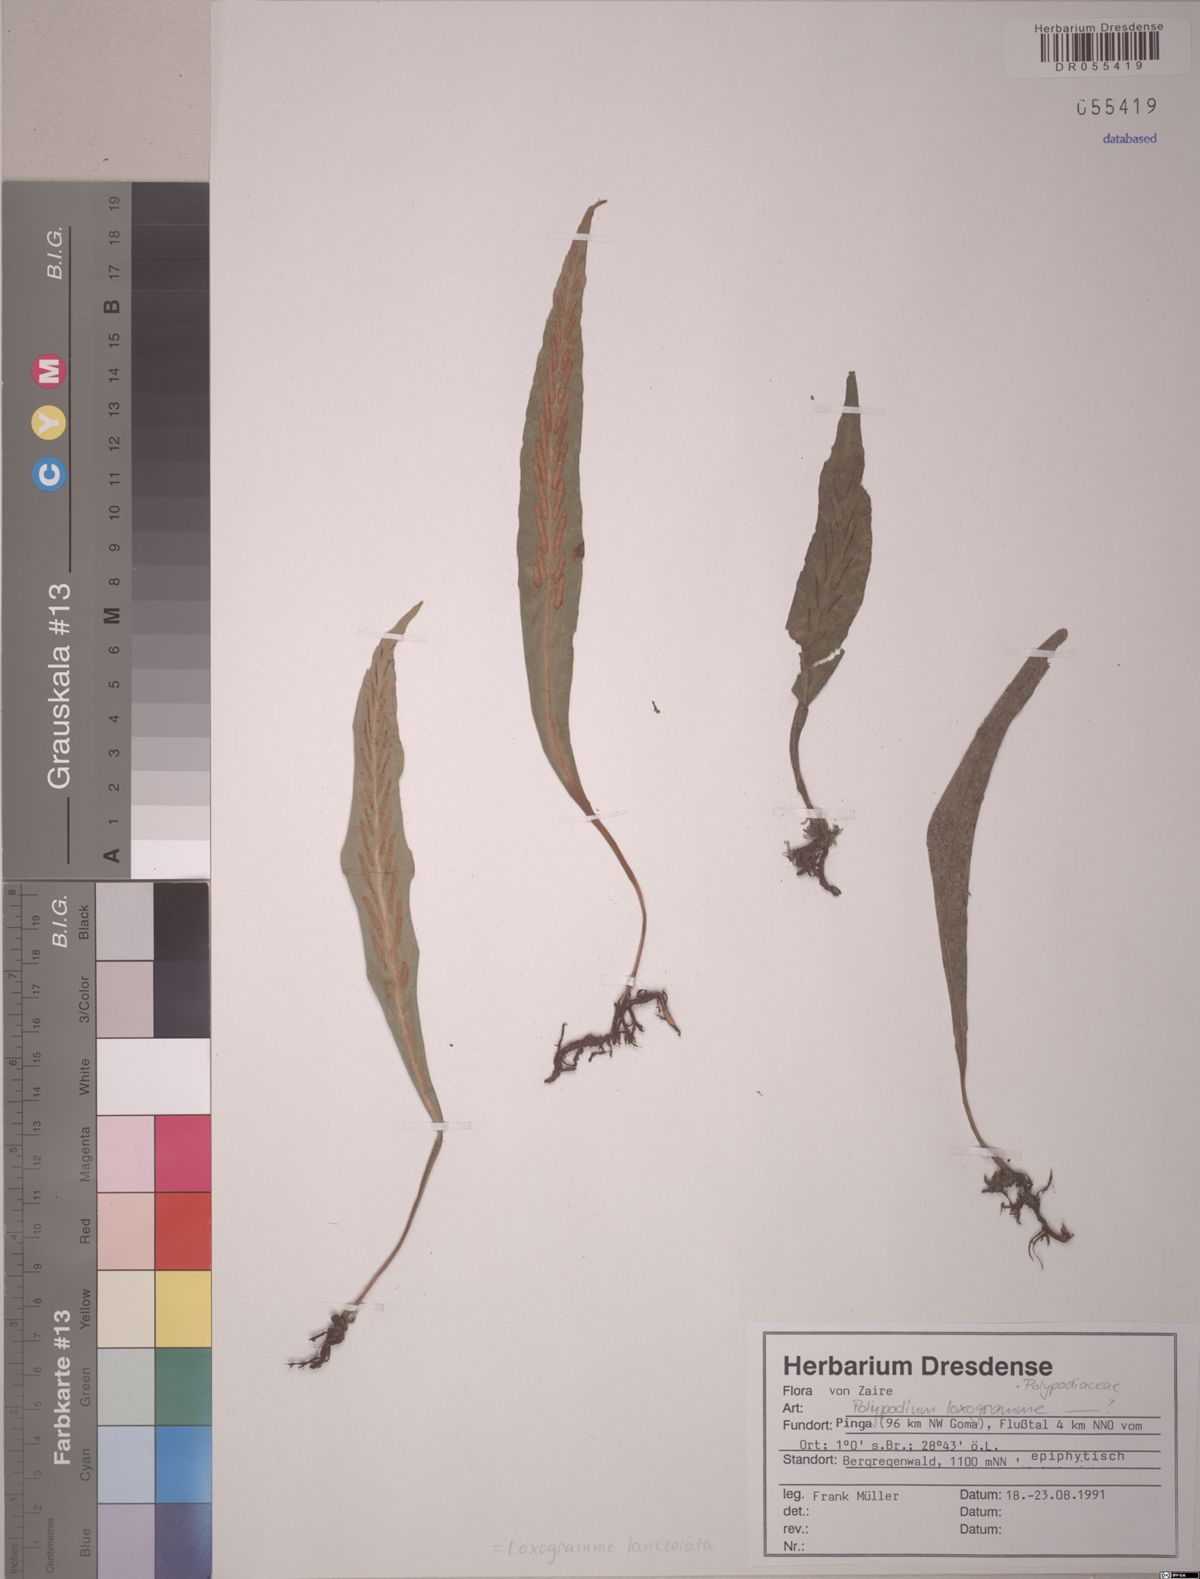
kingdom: Plantae
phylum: Tracheophyta
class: Polypodiopsida
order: Polypodiales
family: Polypodiaceae
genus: Loxogramme
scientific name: Loxogramme lanceolata
